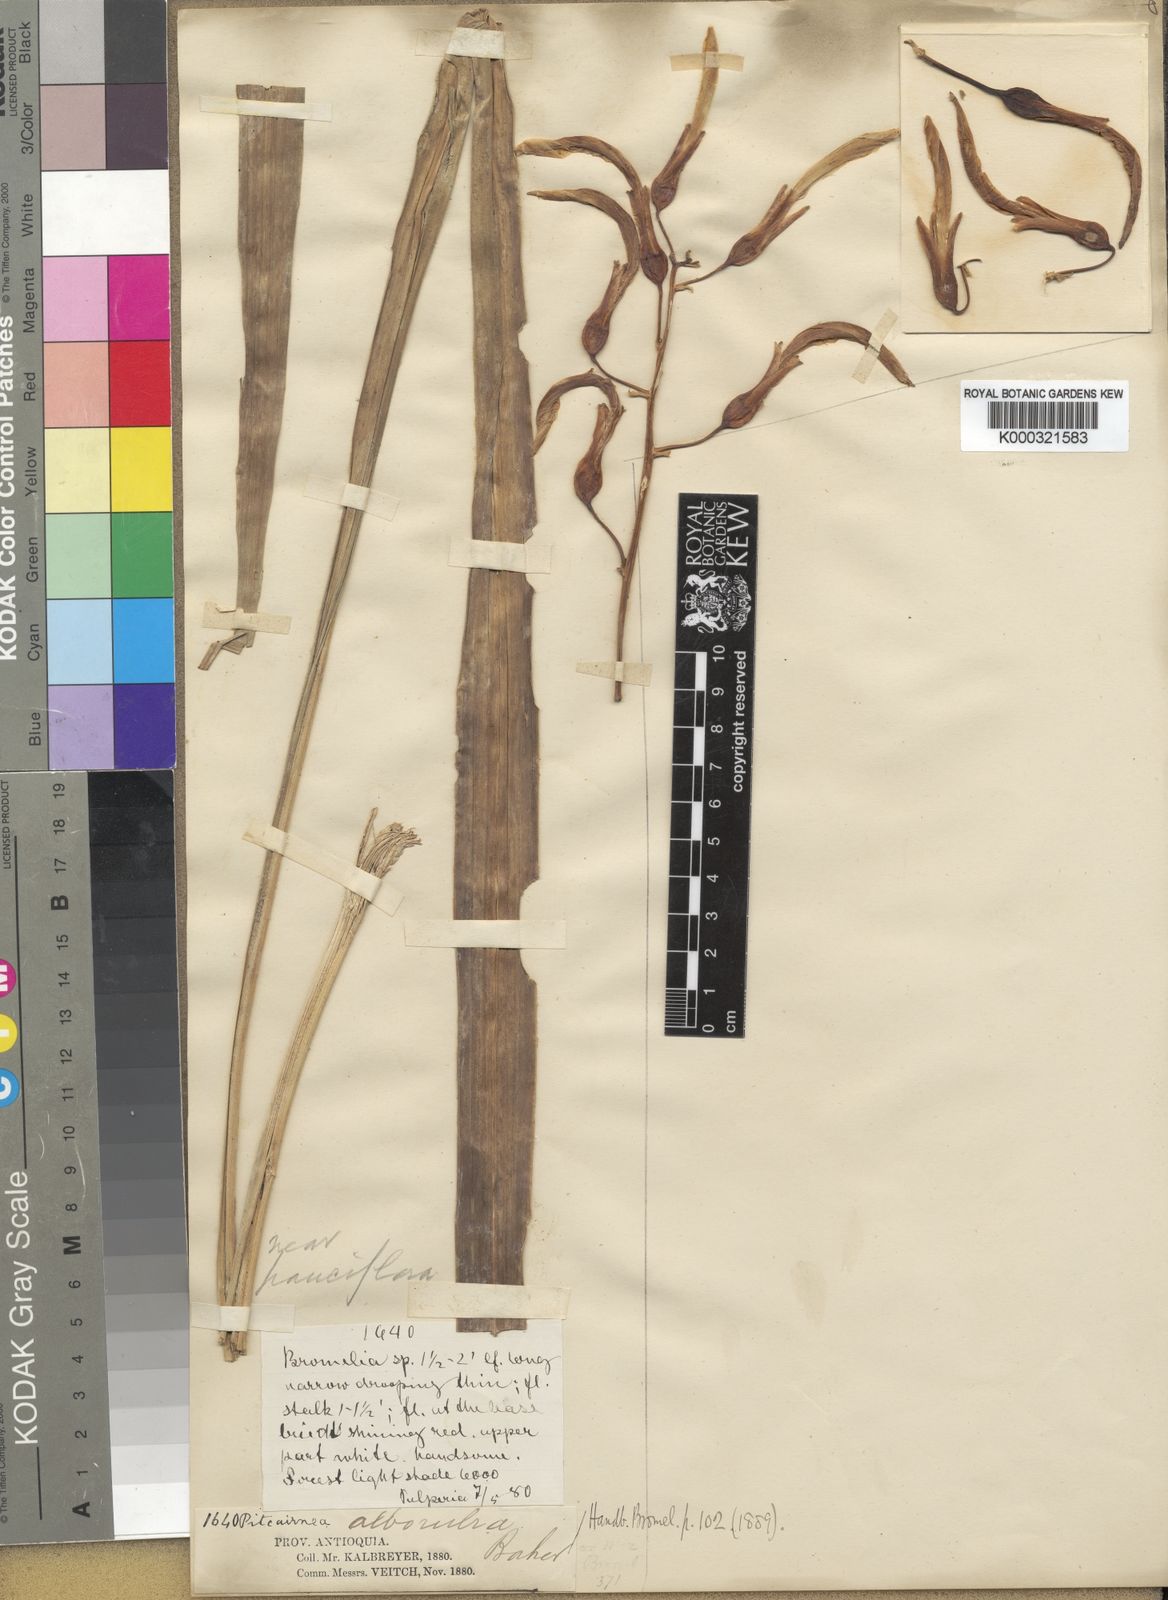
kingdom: Plantae
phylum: Tracheophyta
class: Liliopsida
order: Poales
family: Bromeliaceae
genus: Pitcairnia
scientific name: Pitcairnia alborubra
